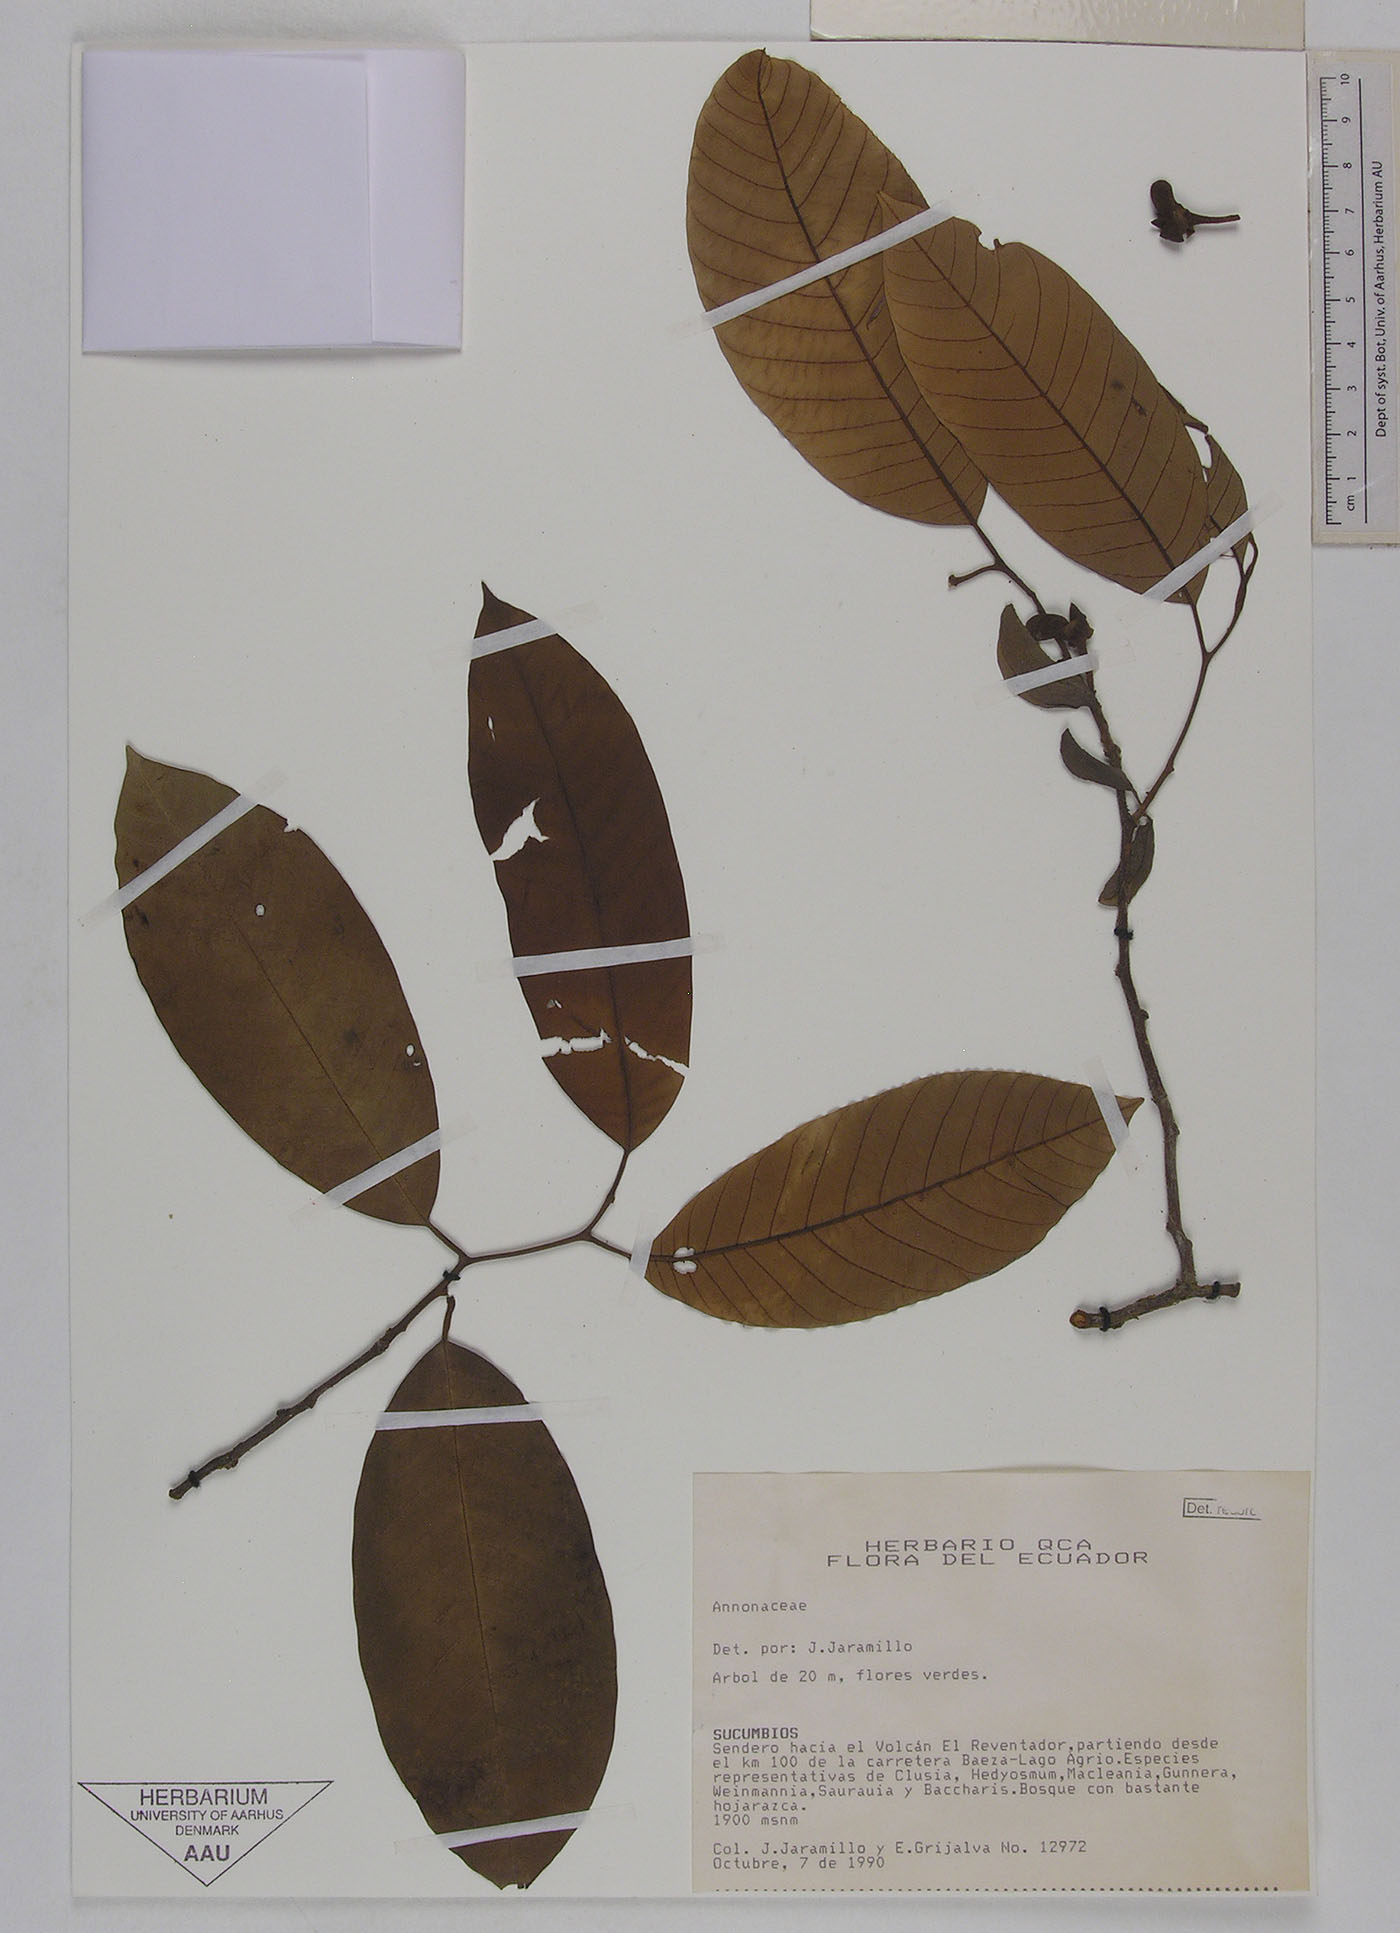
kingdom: Plantae
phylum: Tracheophyta
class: Magnoliopsida
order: Magnoliales
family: Annonaceae
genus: Annona
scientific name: Annona papilionella
